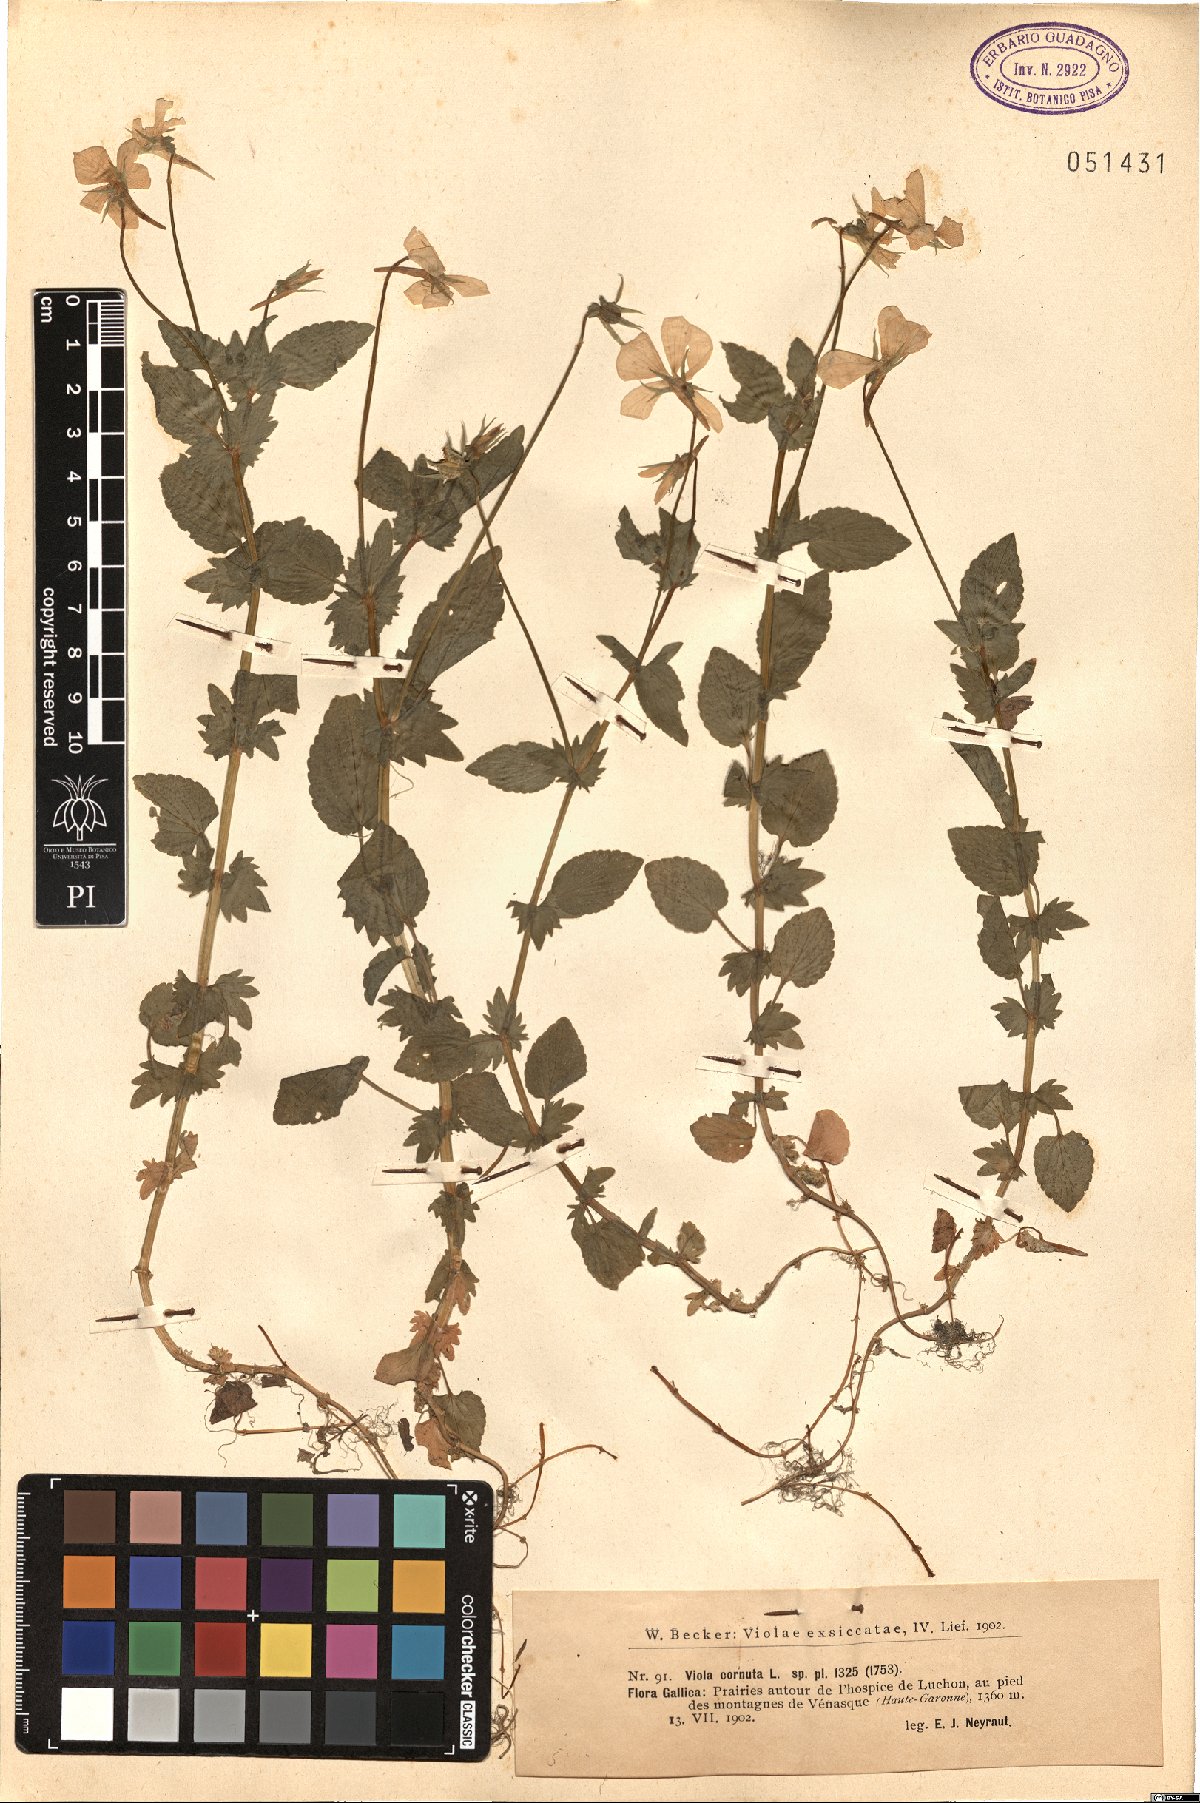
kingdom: Plantae
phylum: Tracheophyta
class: Magnoliopsida
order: Malpighiales
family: Violaceae
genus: Viola
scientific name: Viola cornuta
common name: Horned pansy
